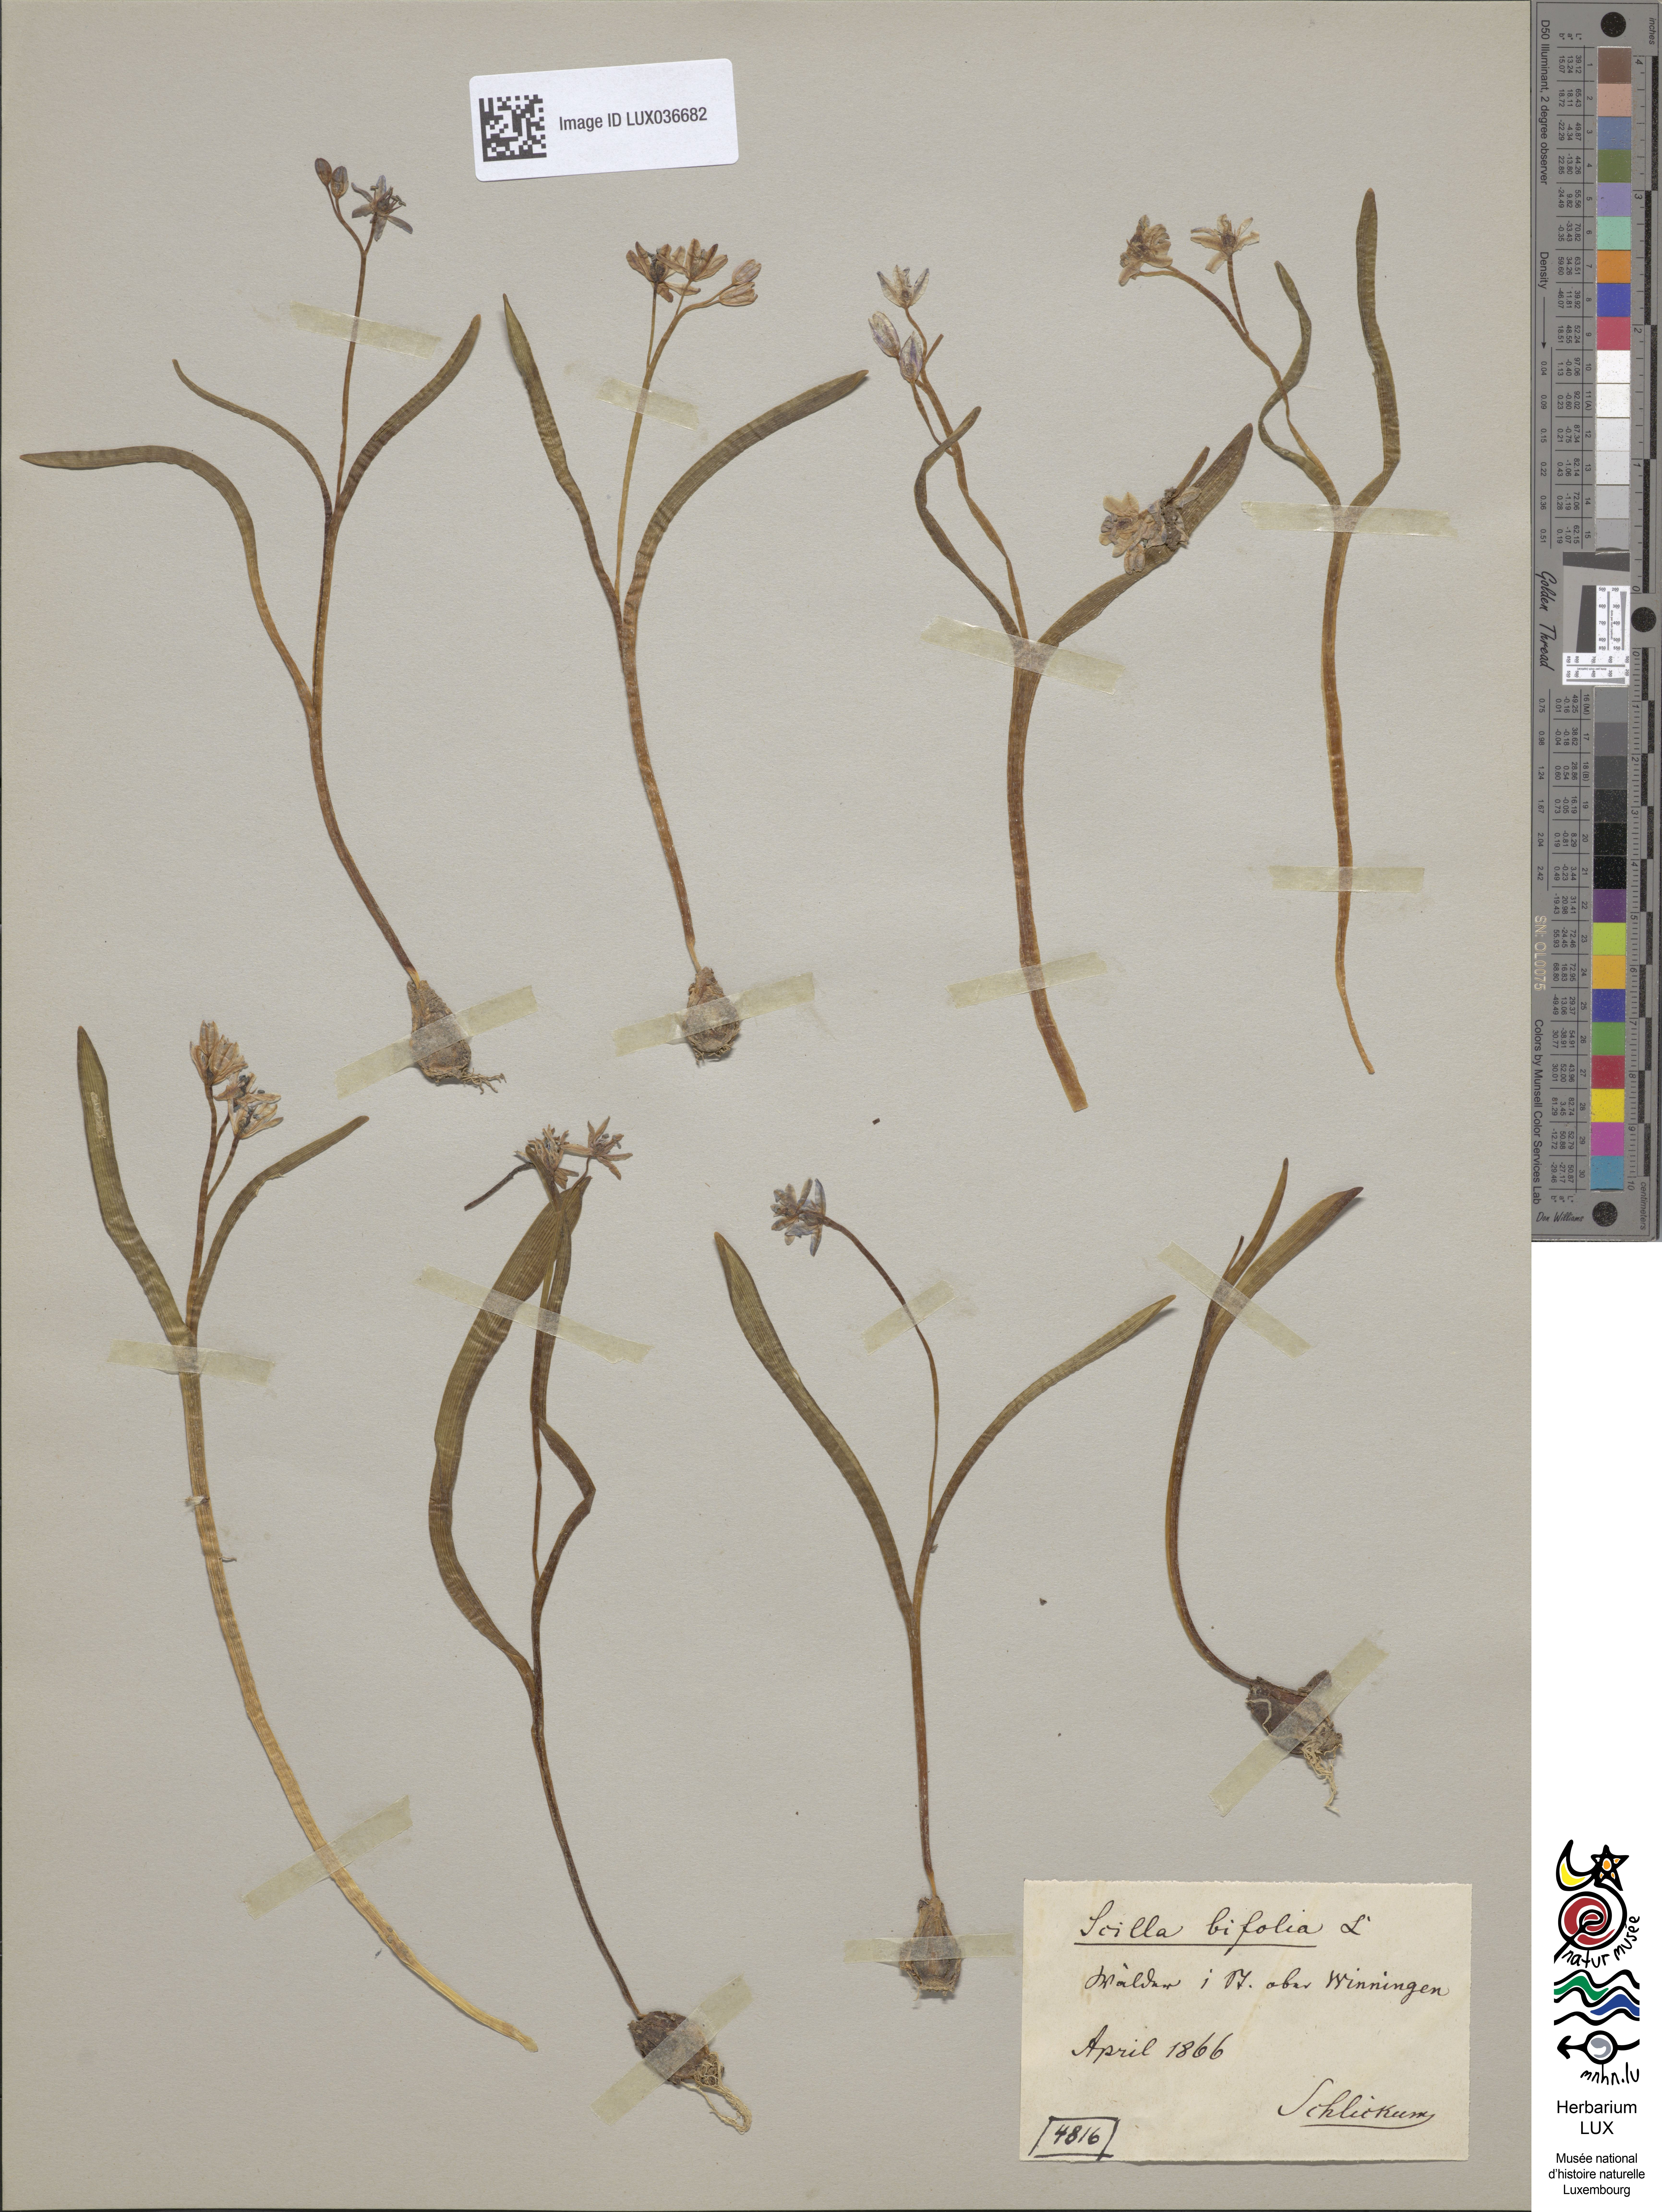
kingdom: Plantae
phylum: Tracheophyta
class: Liliopsida
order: Asparagales
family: Asparagaceae
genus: Scilla
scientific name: Scilla bifolia
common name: Alpine squill
